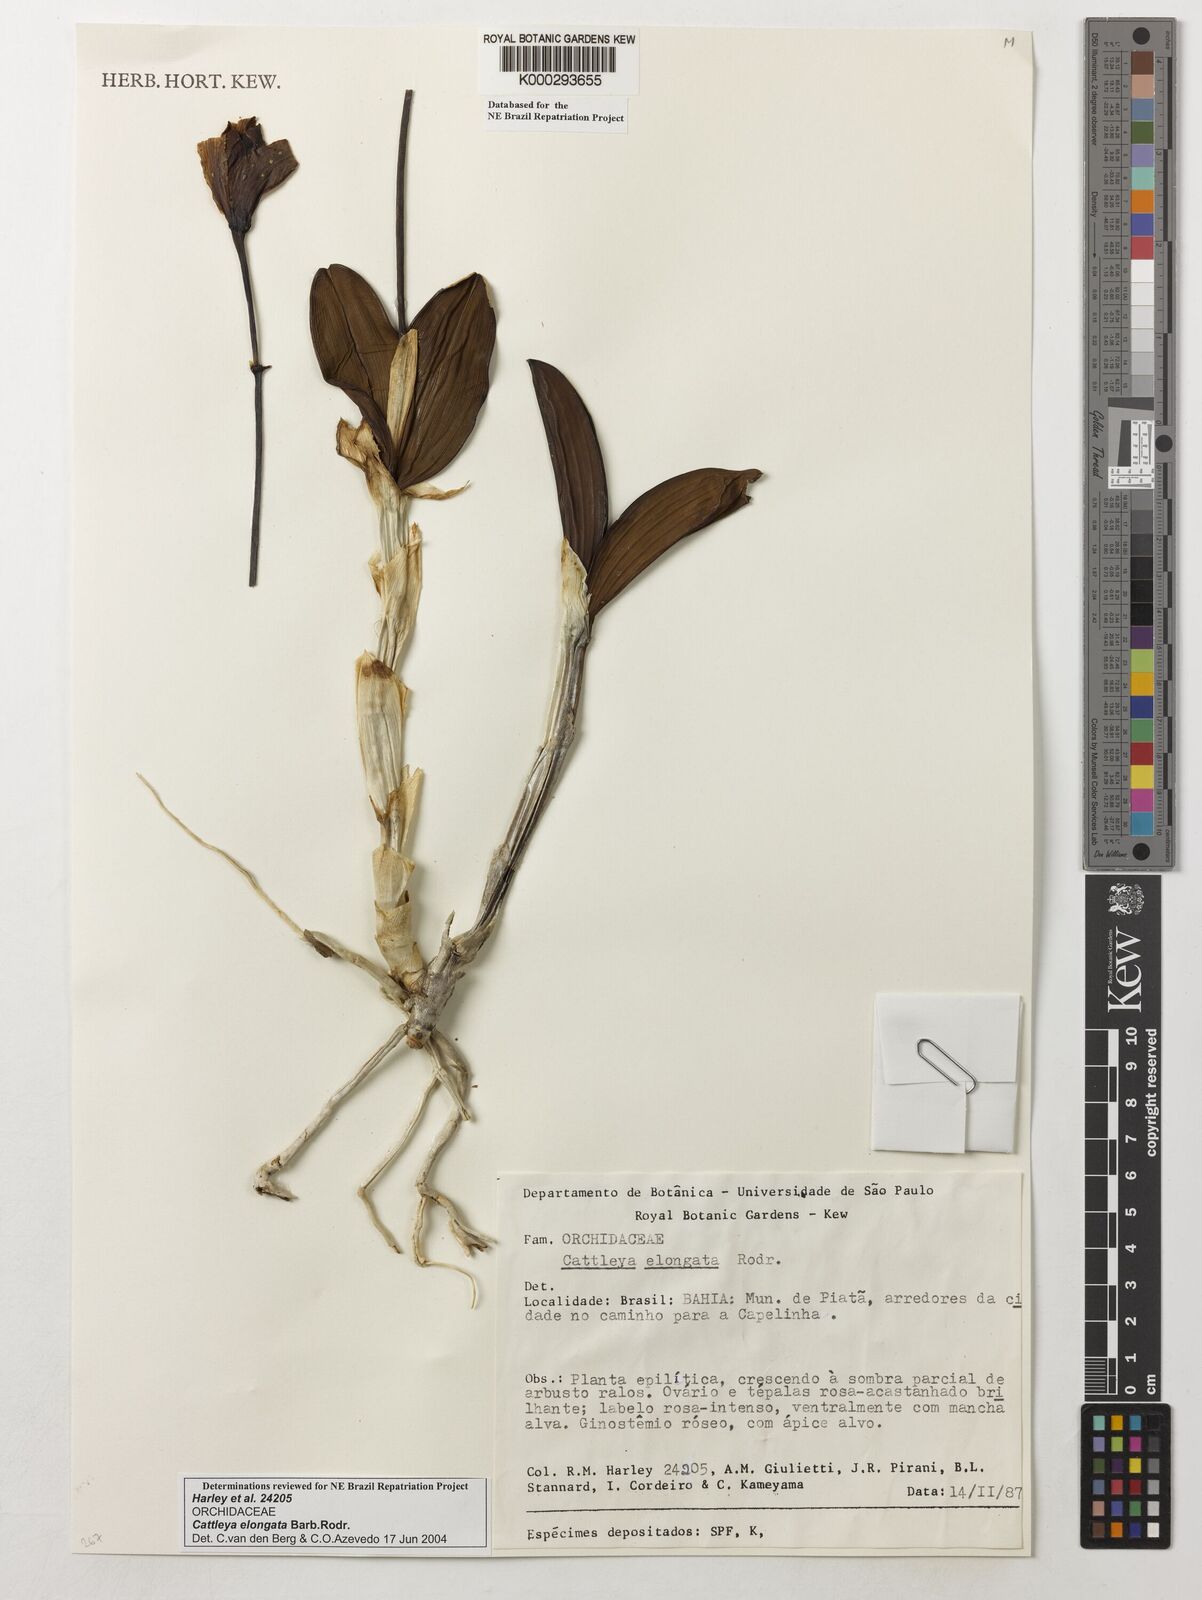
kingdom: Plantae
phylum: Tracheophyta
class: Liliopsida
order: Asparagales
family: Orchidaceae
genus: Cattleya
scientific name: Cattleya elongata
